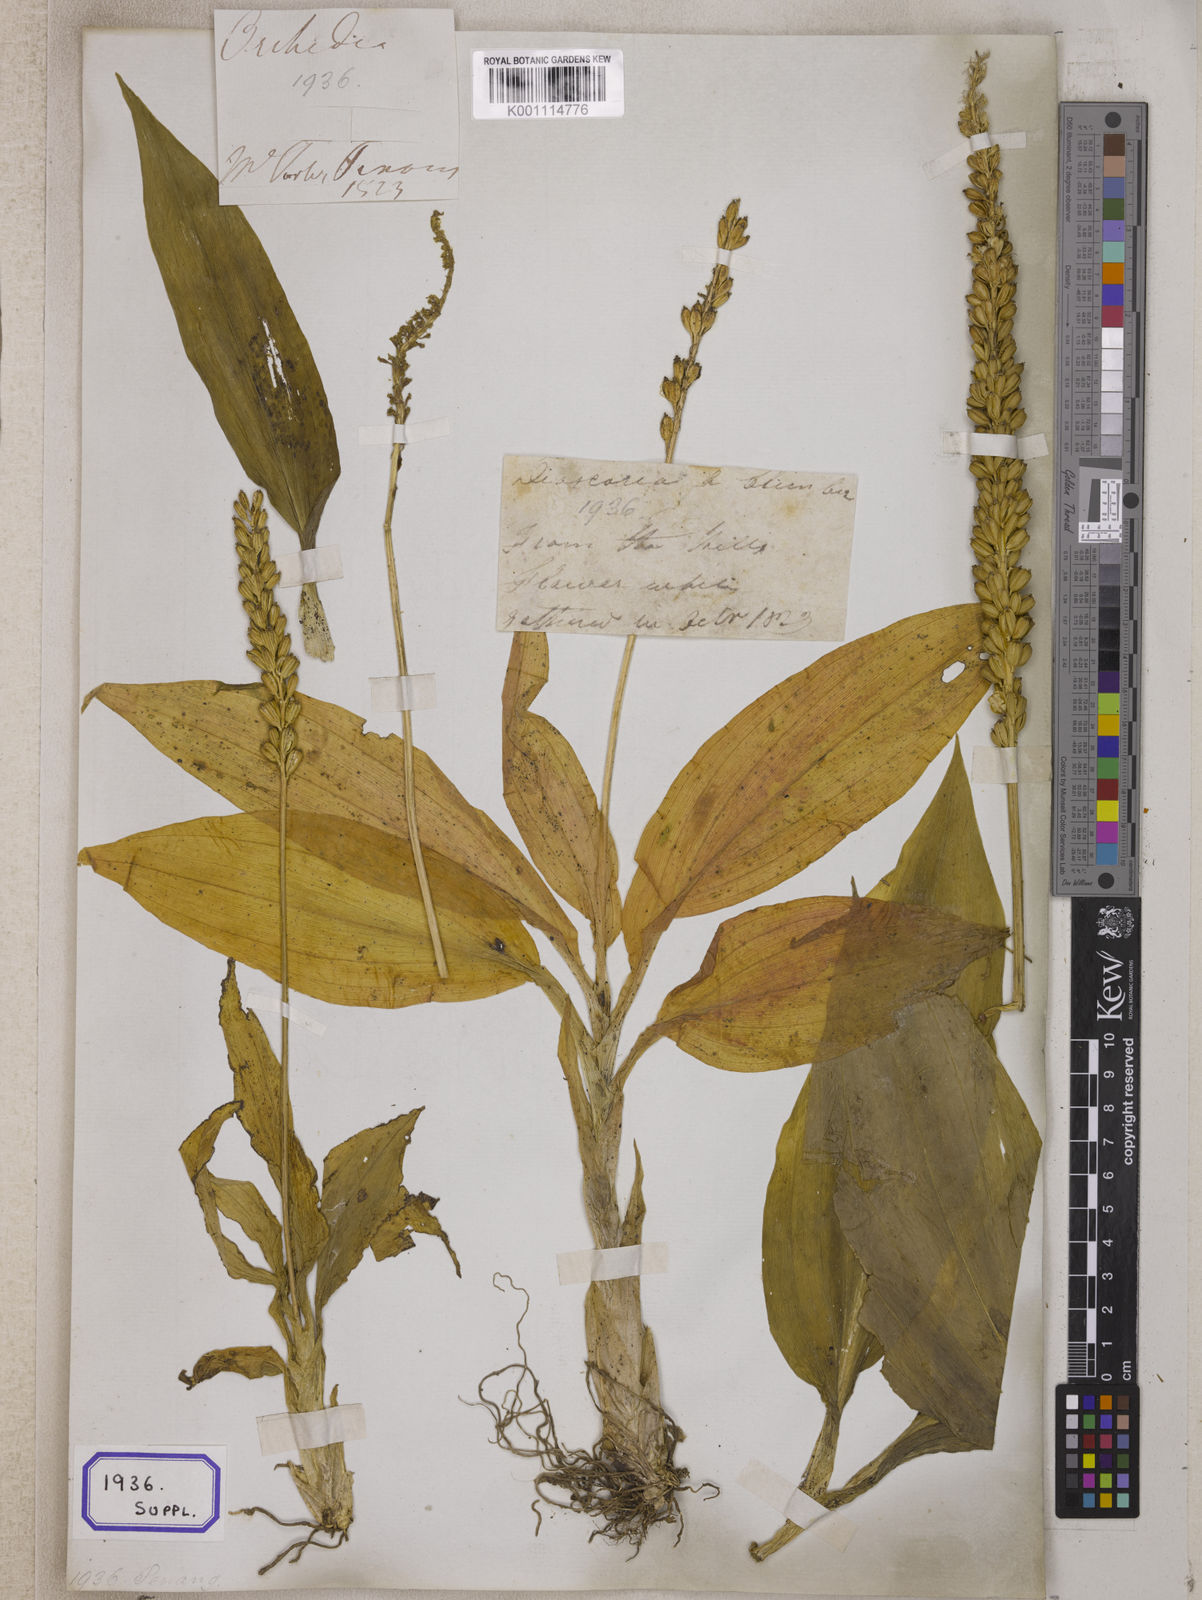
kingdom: Plantae
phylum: Tracheophyta
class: Liliopsida
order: Asparagales
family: Orchidaceae
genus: Dienia
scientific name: Dienia ophrydis
